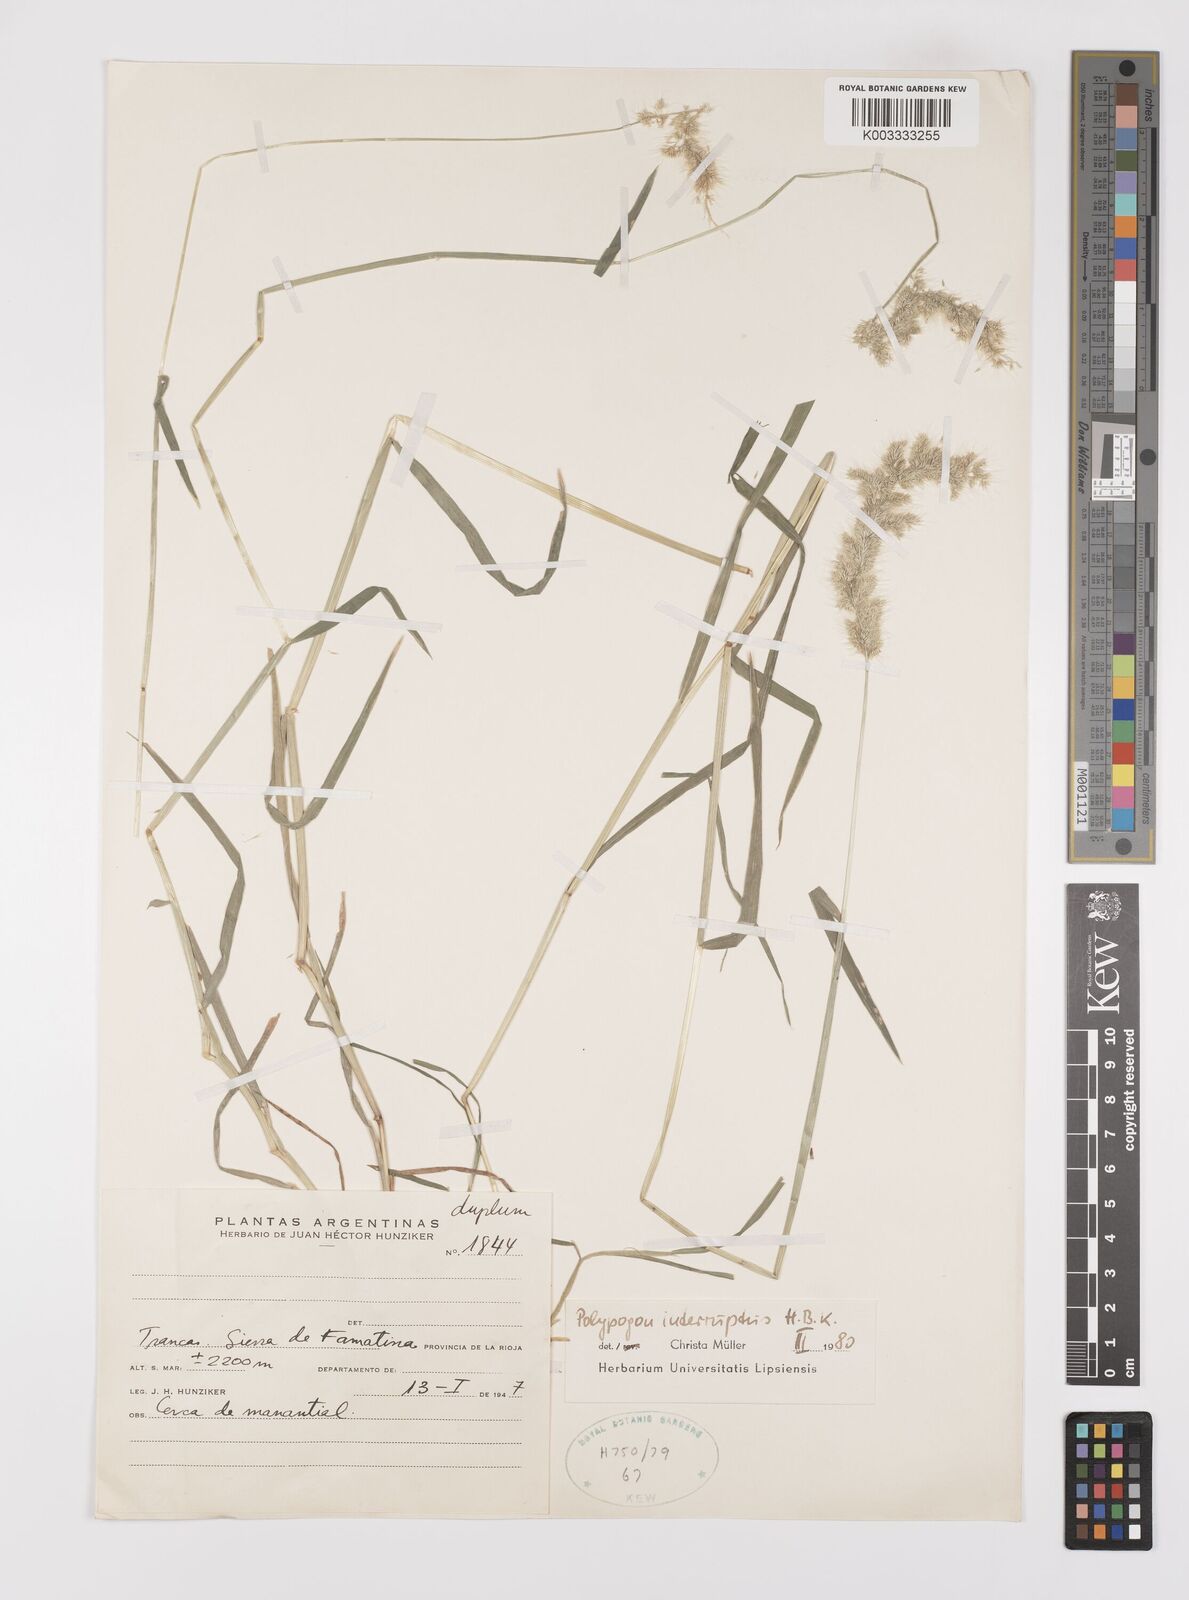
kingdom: Plantae
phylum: Tracheophyta
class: Liliopsida
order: Poales
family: Poaceae
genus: Polypogon
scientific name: Polypogon interruptus
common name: Ditch polypogon
